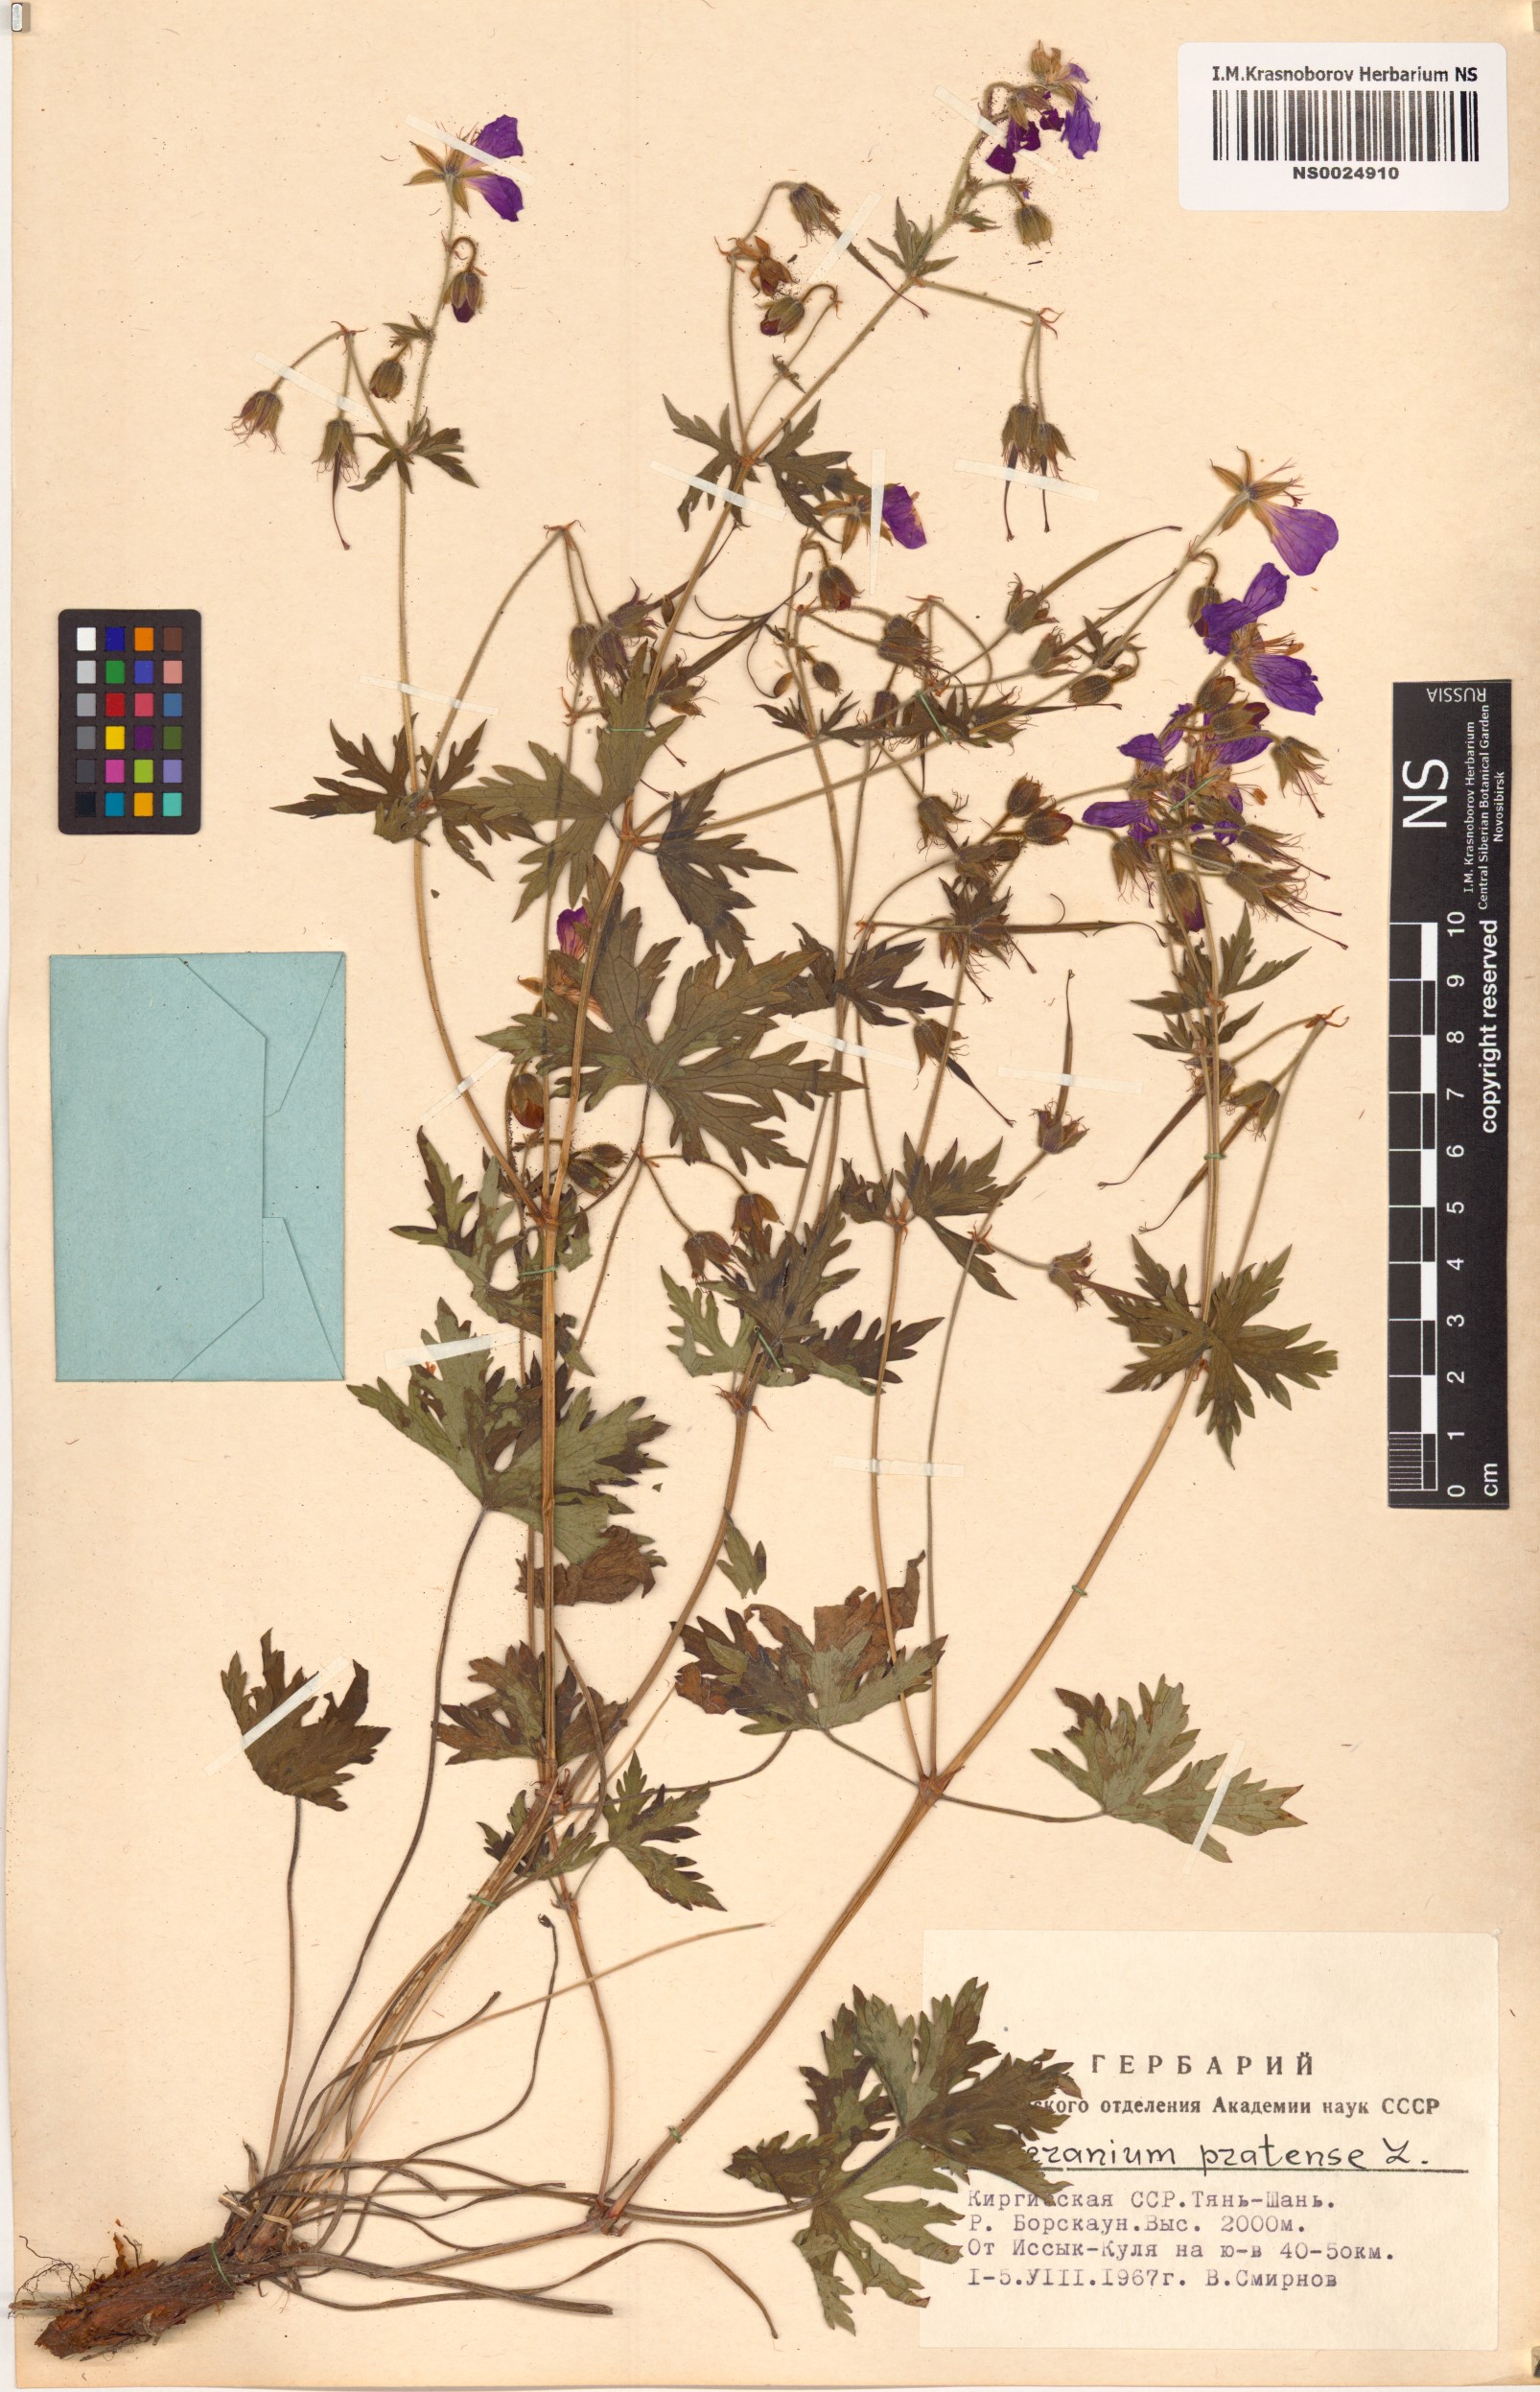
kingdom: Plantae
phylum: Tracheophyta
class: Magnoliopsida
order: Geraniales
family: Geraniaceae
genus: Geranium
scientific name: Geranium pratense
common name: Meadow crane's-bill
